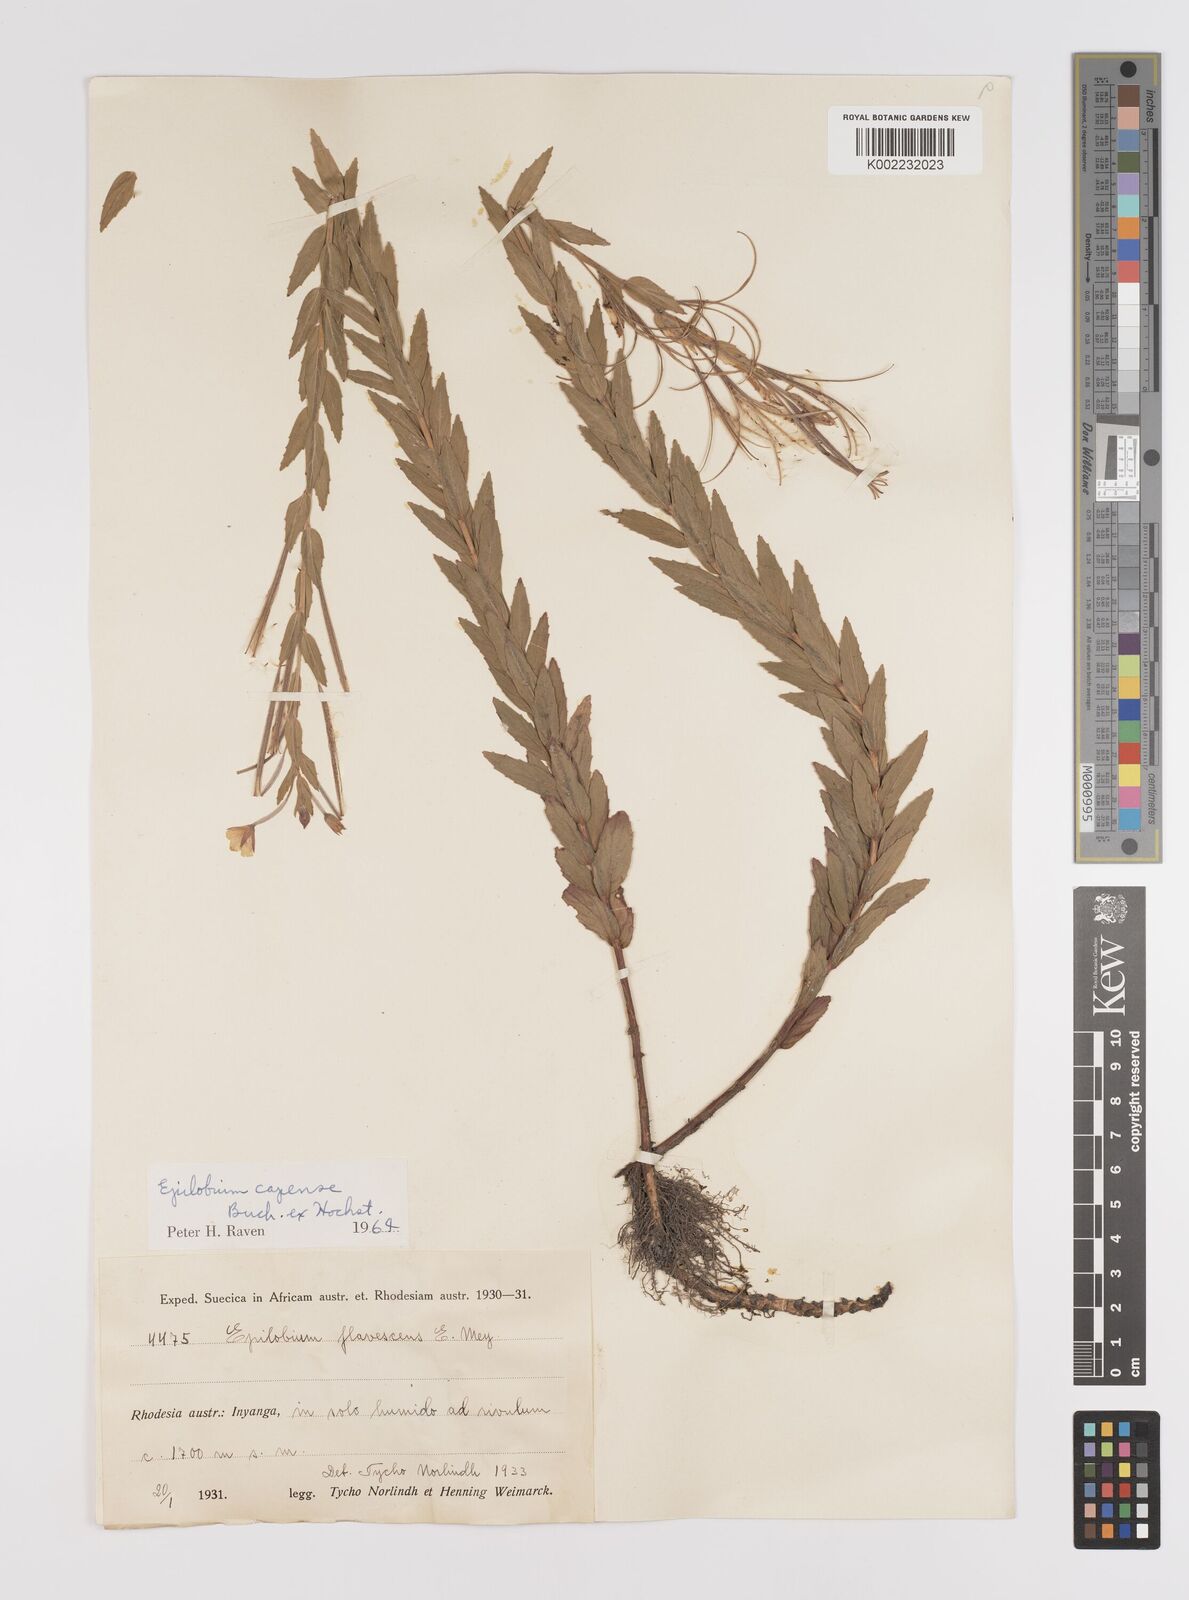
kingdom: Plantae
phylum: Tracheophyta
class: Magnoliopsida
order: Myrtales
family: Onagraceae
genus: Epilobium
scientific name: Epilobium capense
